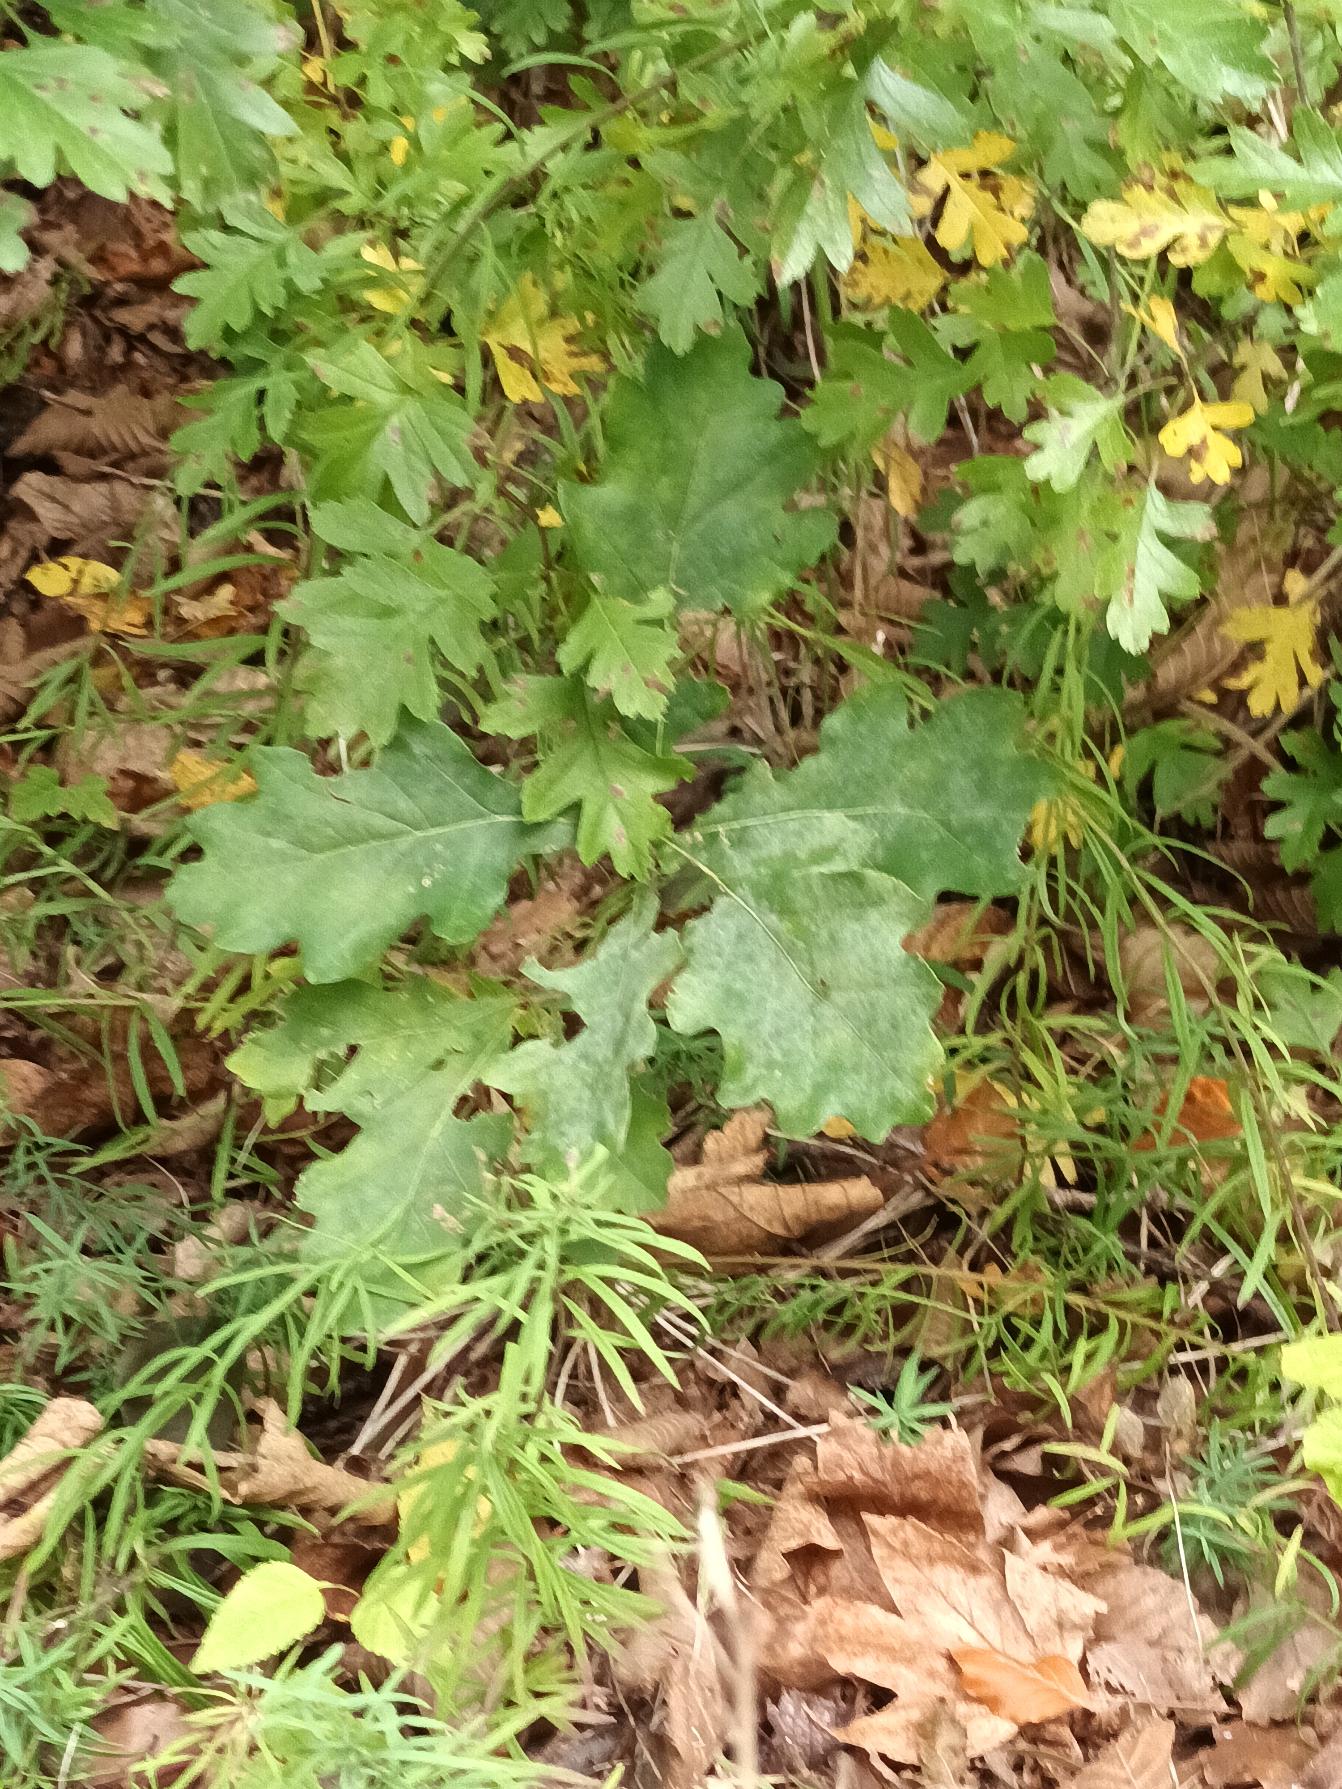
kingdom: Plantae
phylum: Tracheophyta
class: Magnoliopsida
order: Fagales
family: Fagaceae
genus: Quercus
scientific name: Quercus robur
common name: Stilk-eg/almindelig eg
